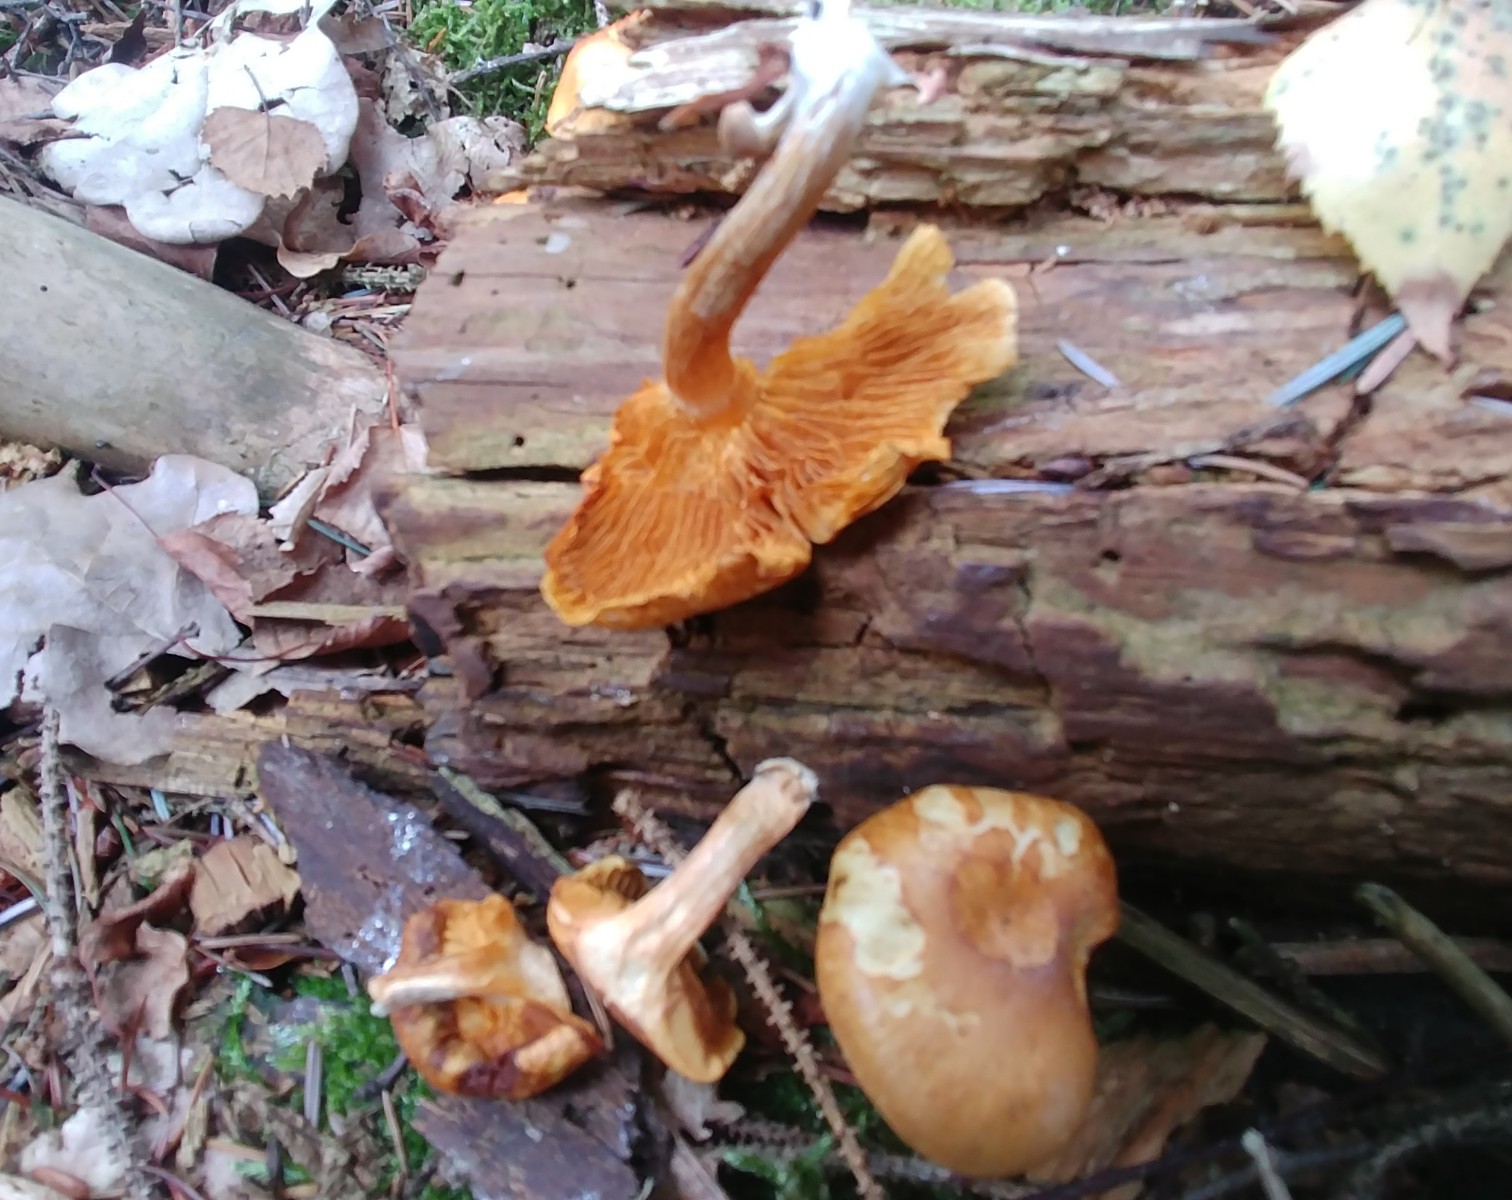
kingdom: Fungi
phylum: Basidiomycota
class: Agaricomycetes
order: Agaricales
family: Hymenogastraceae
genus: Gymnopilus
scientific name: Gymnopilus penetrans
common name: plettet flammehat
